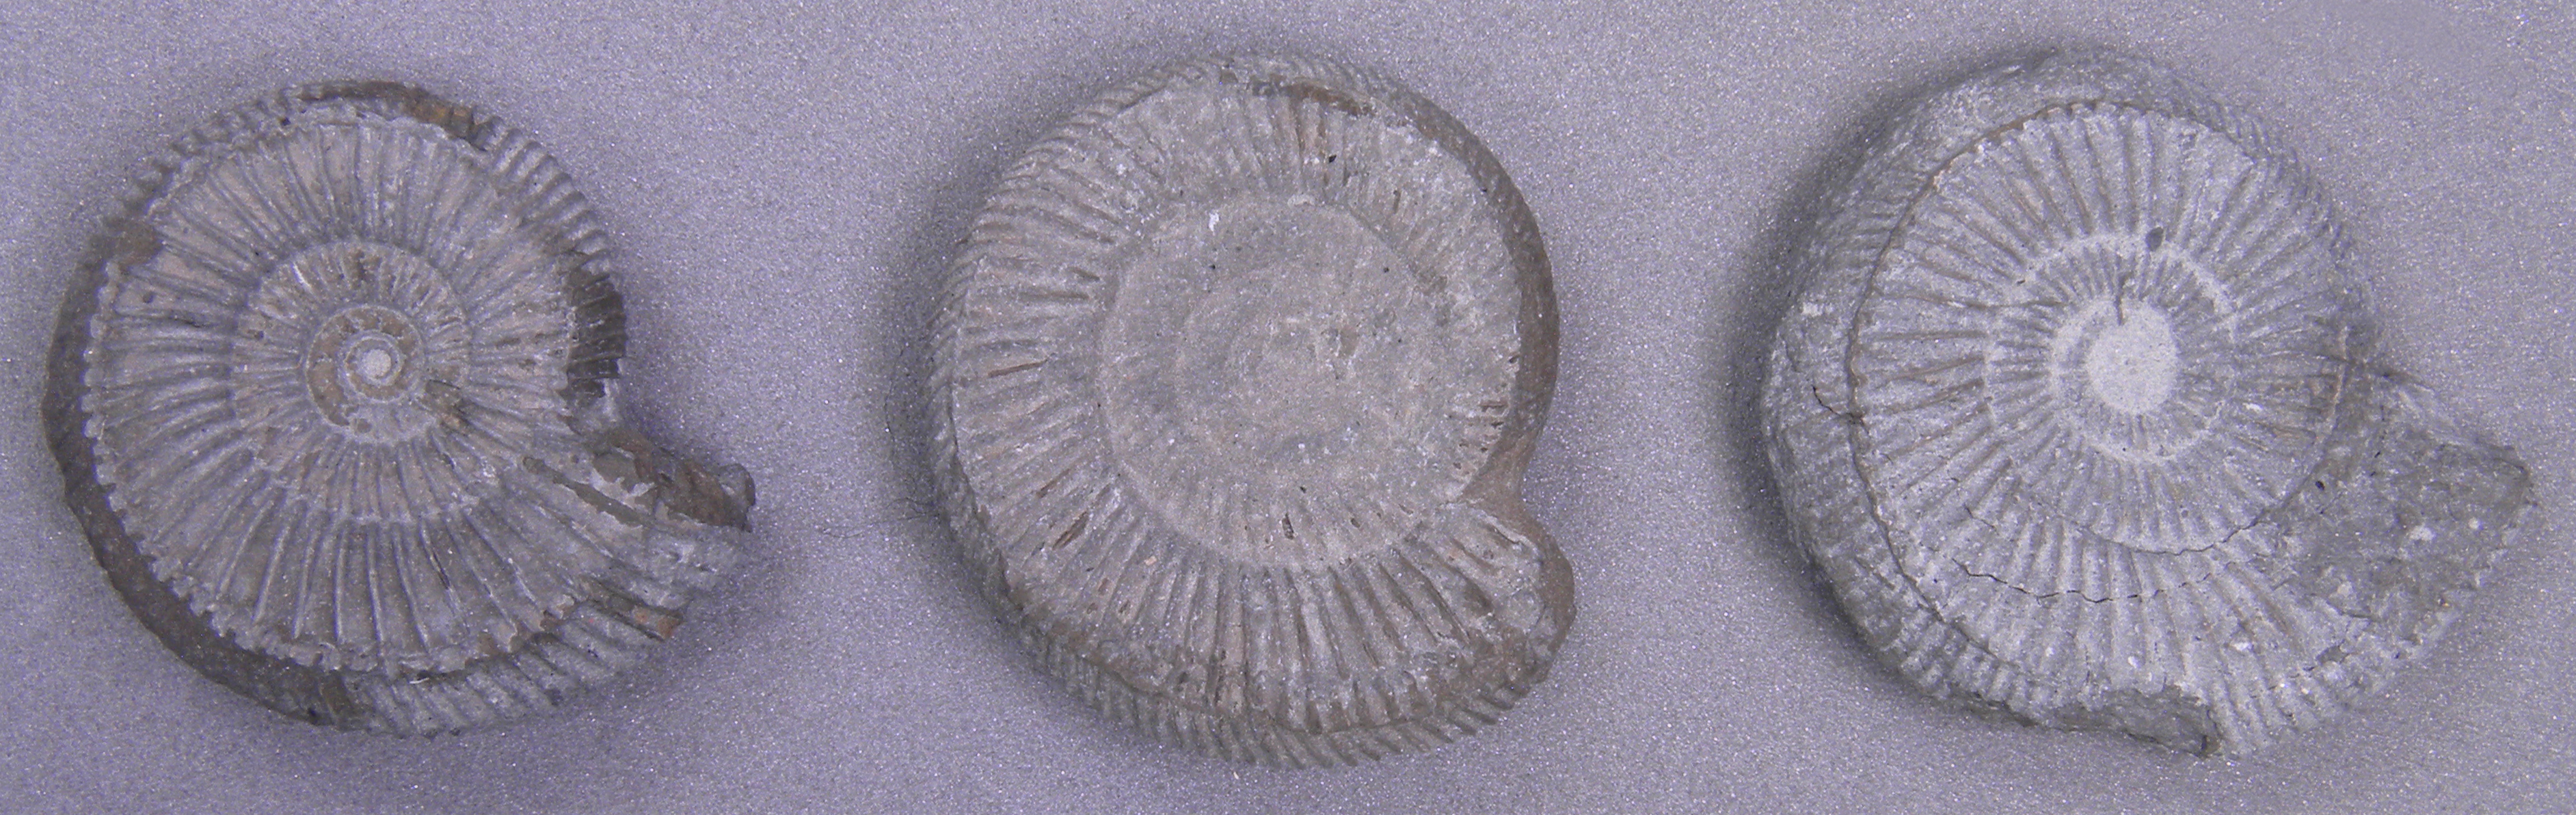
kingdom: Animalia
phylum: Mollusca
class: Cephalopoda
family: Dactylioceratidae
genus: Dactylioceras
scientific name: Dactylioceras
